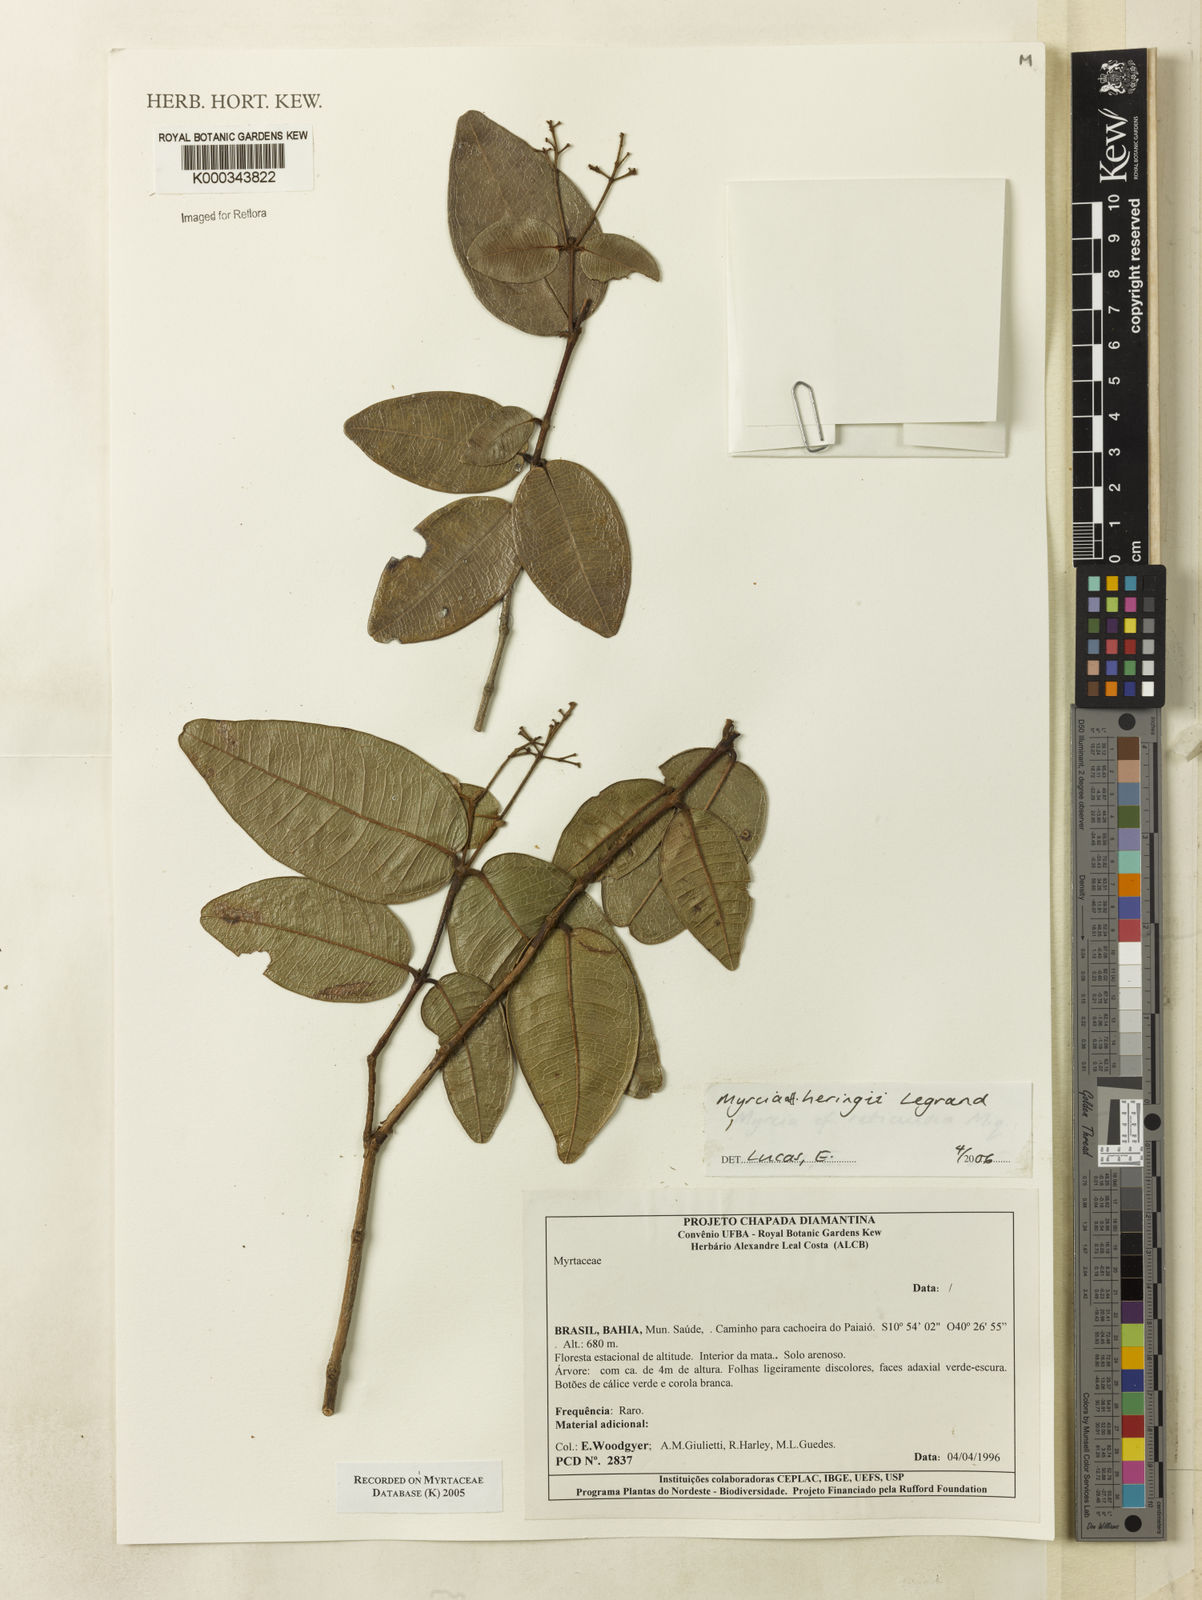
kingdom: Plantae
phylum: Tracheophyta
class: Magnoliopsida
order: Myrtales
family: Myrtaceae
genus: Myrcia
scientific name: Myrcia heringii
